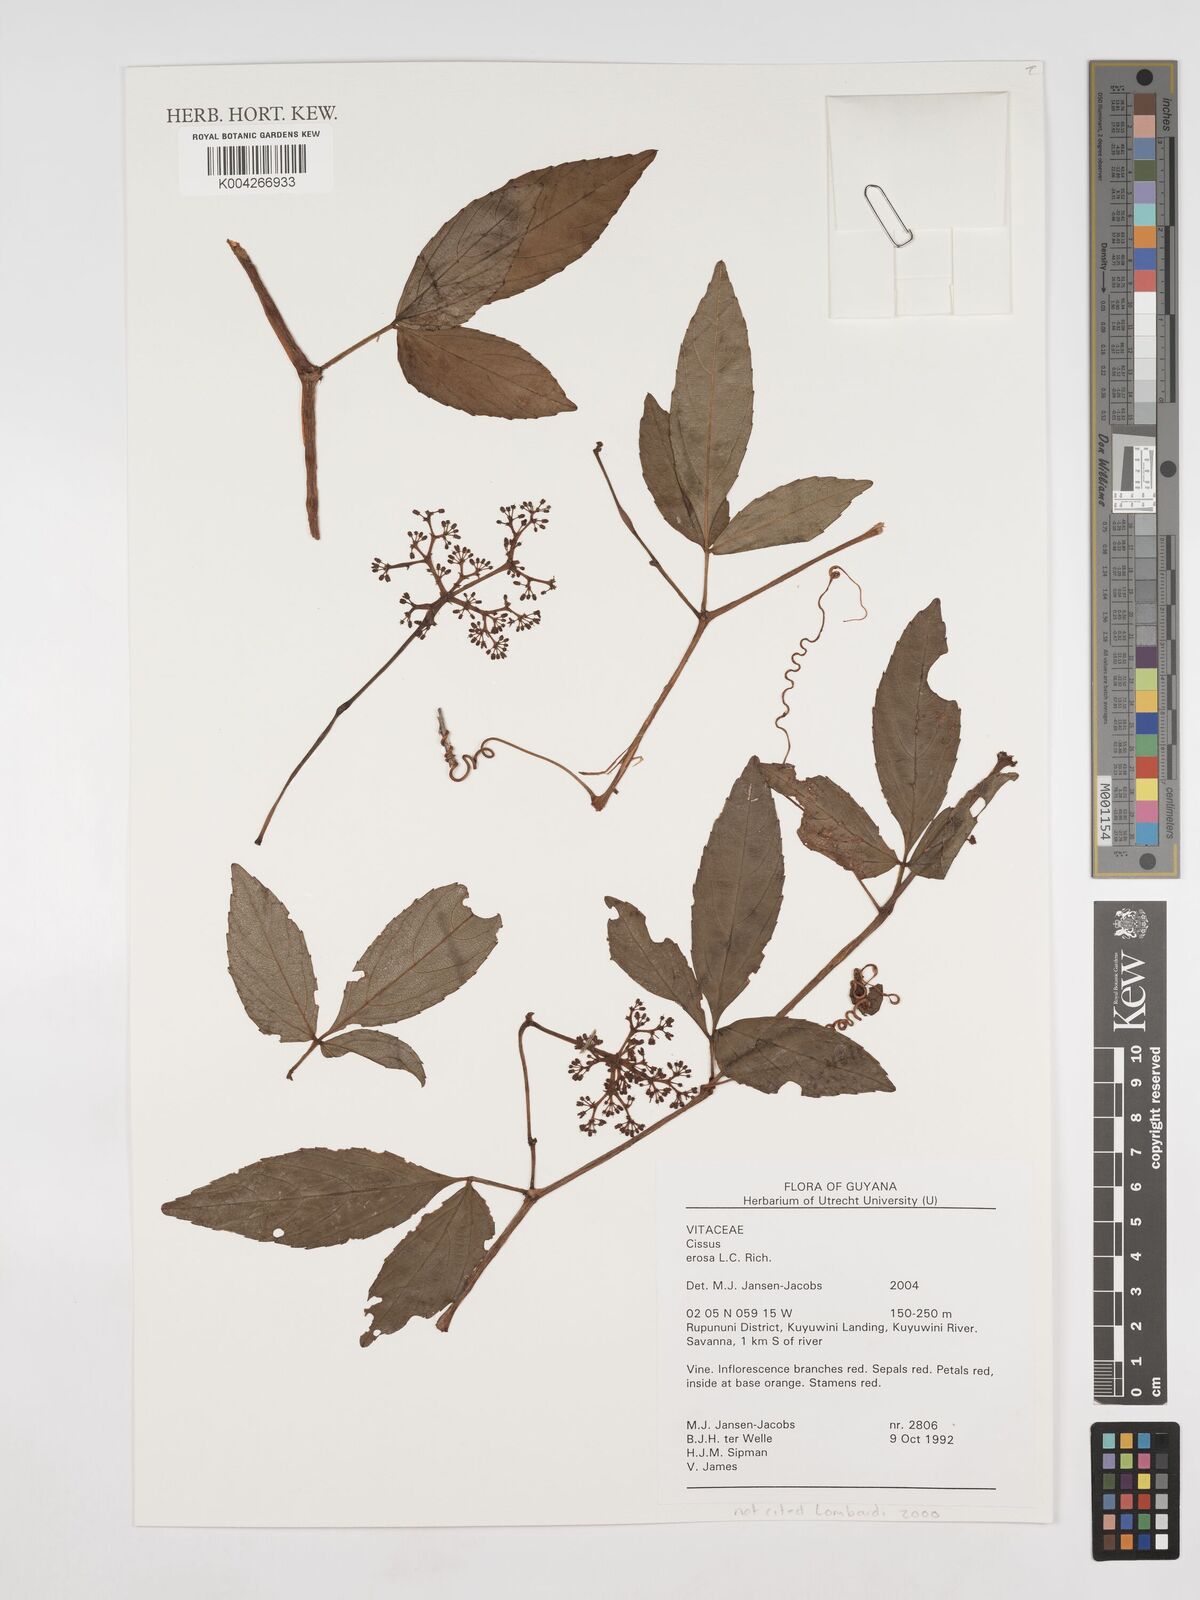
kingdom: Plantae
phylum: Tracheophyta
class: Magnoliopsida
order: Vitales
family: Vitaceae
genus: Cissus
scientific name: Cissus erosa
